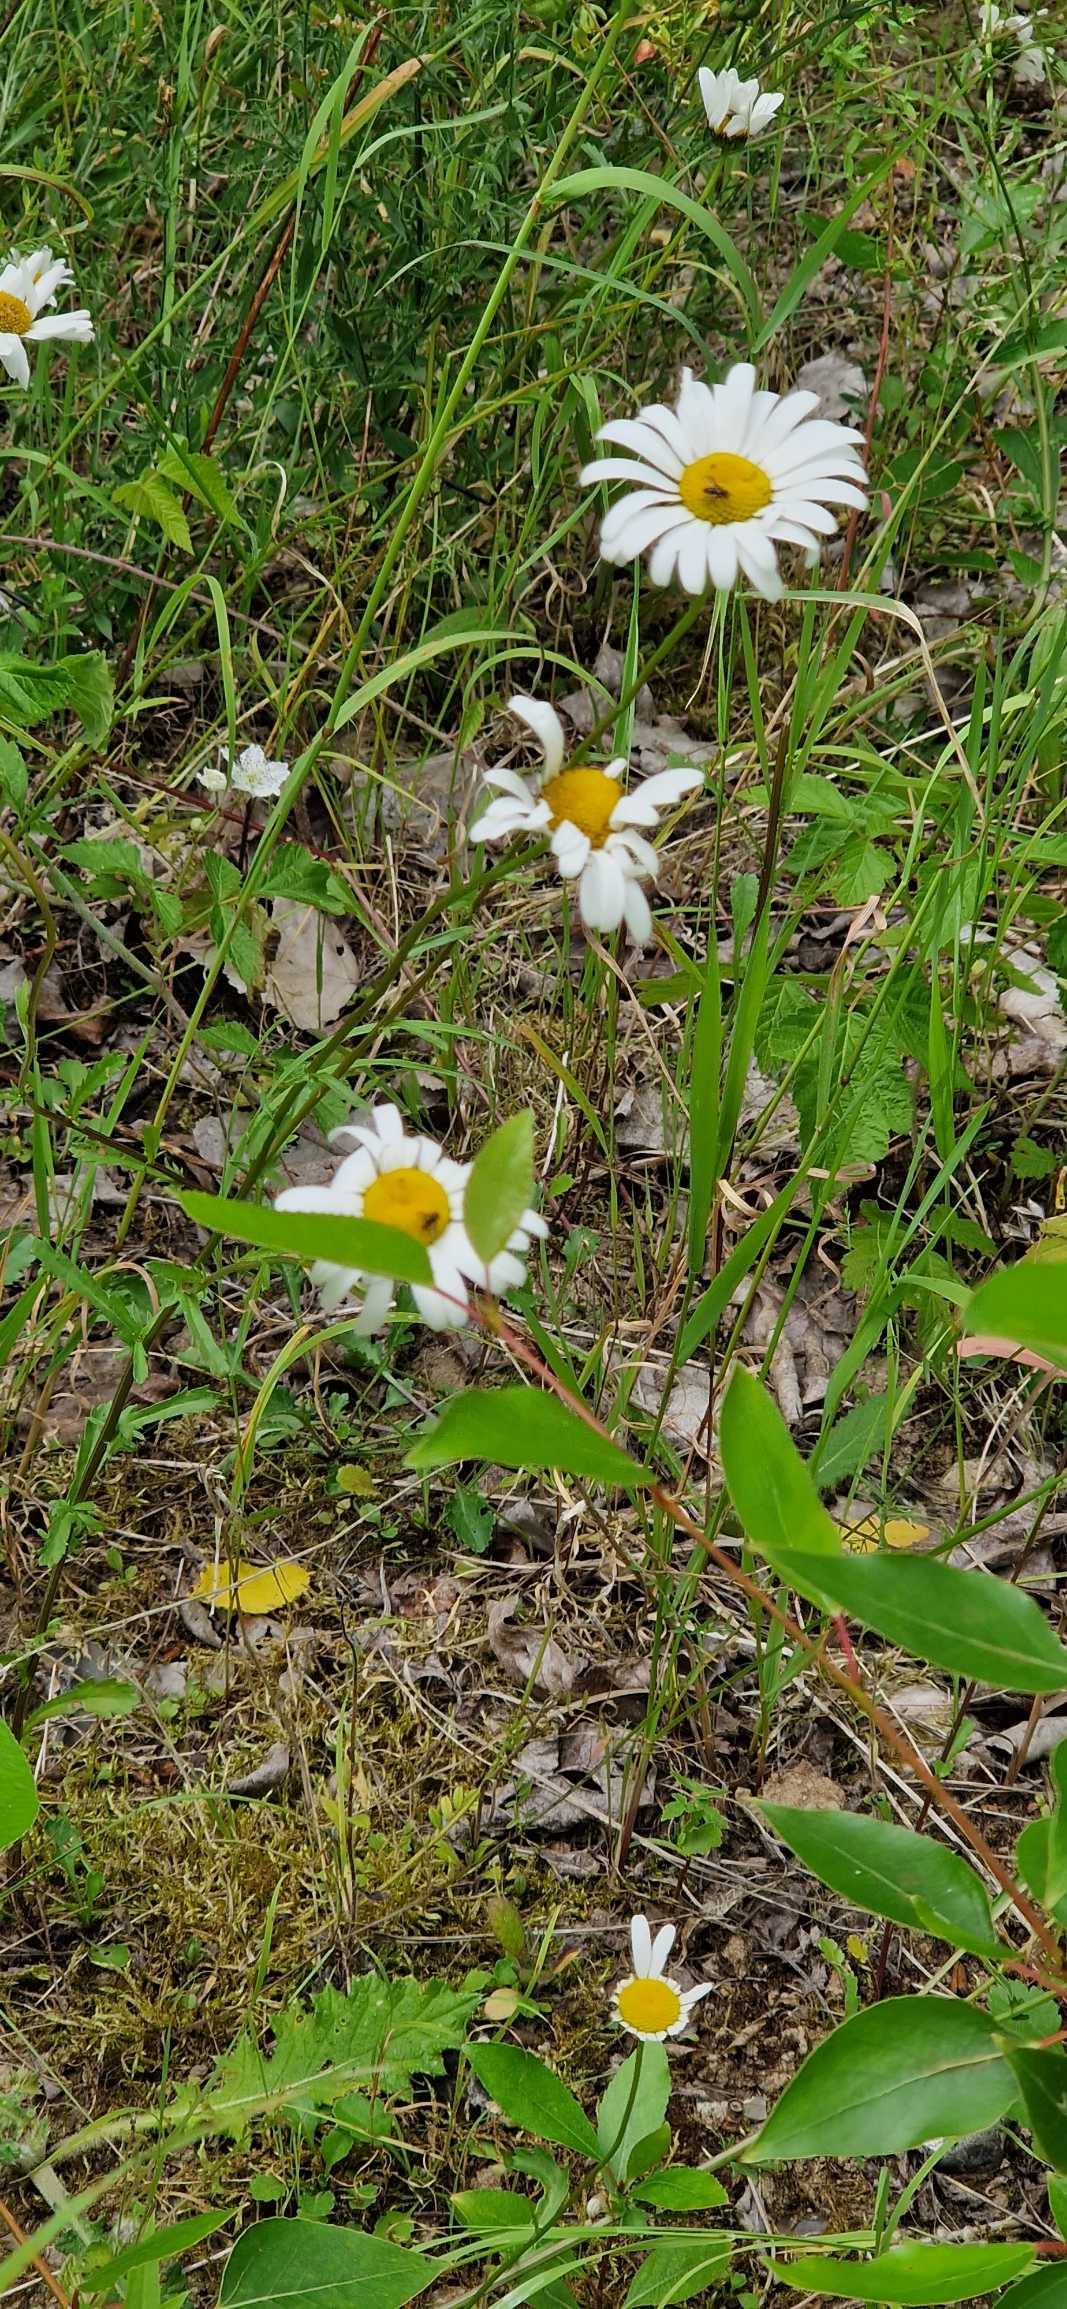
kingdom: Plantae
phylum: Tracheophyta
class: Magnoliopsida
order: Asterales
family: Asteraceae
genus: Leucanthemum
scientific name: Leucanthemum vulgare
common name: Hvid okseøje
